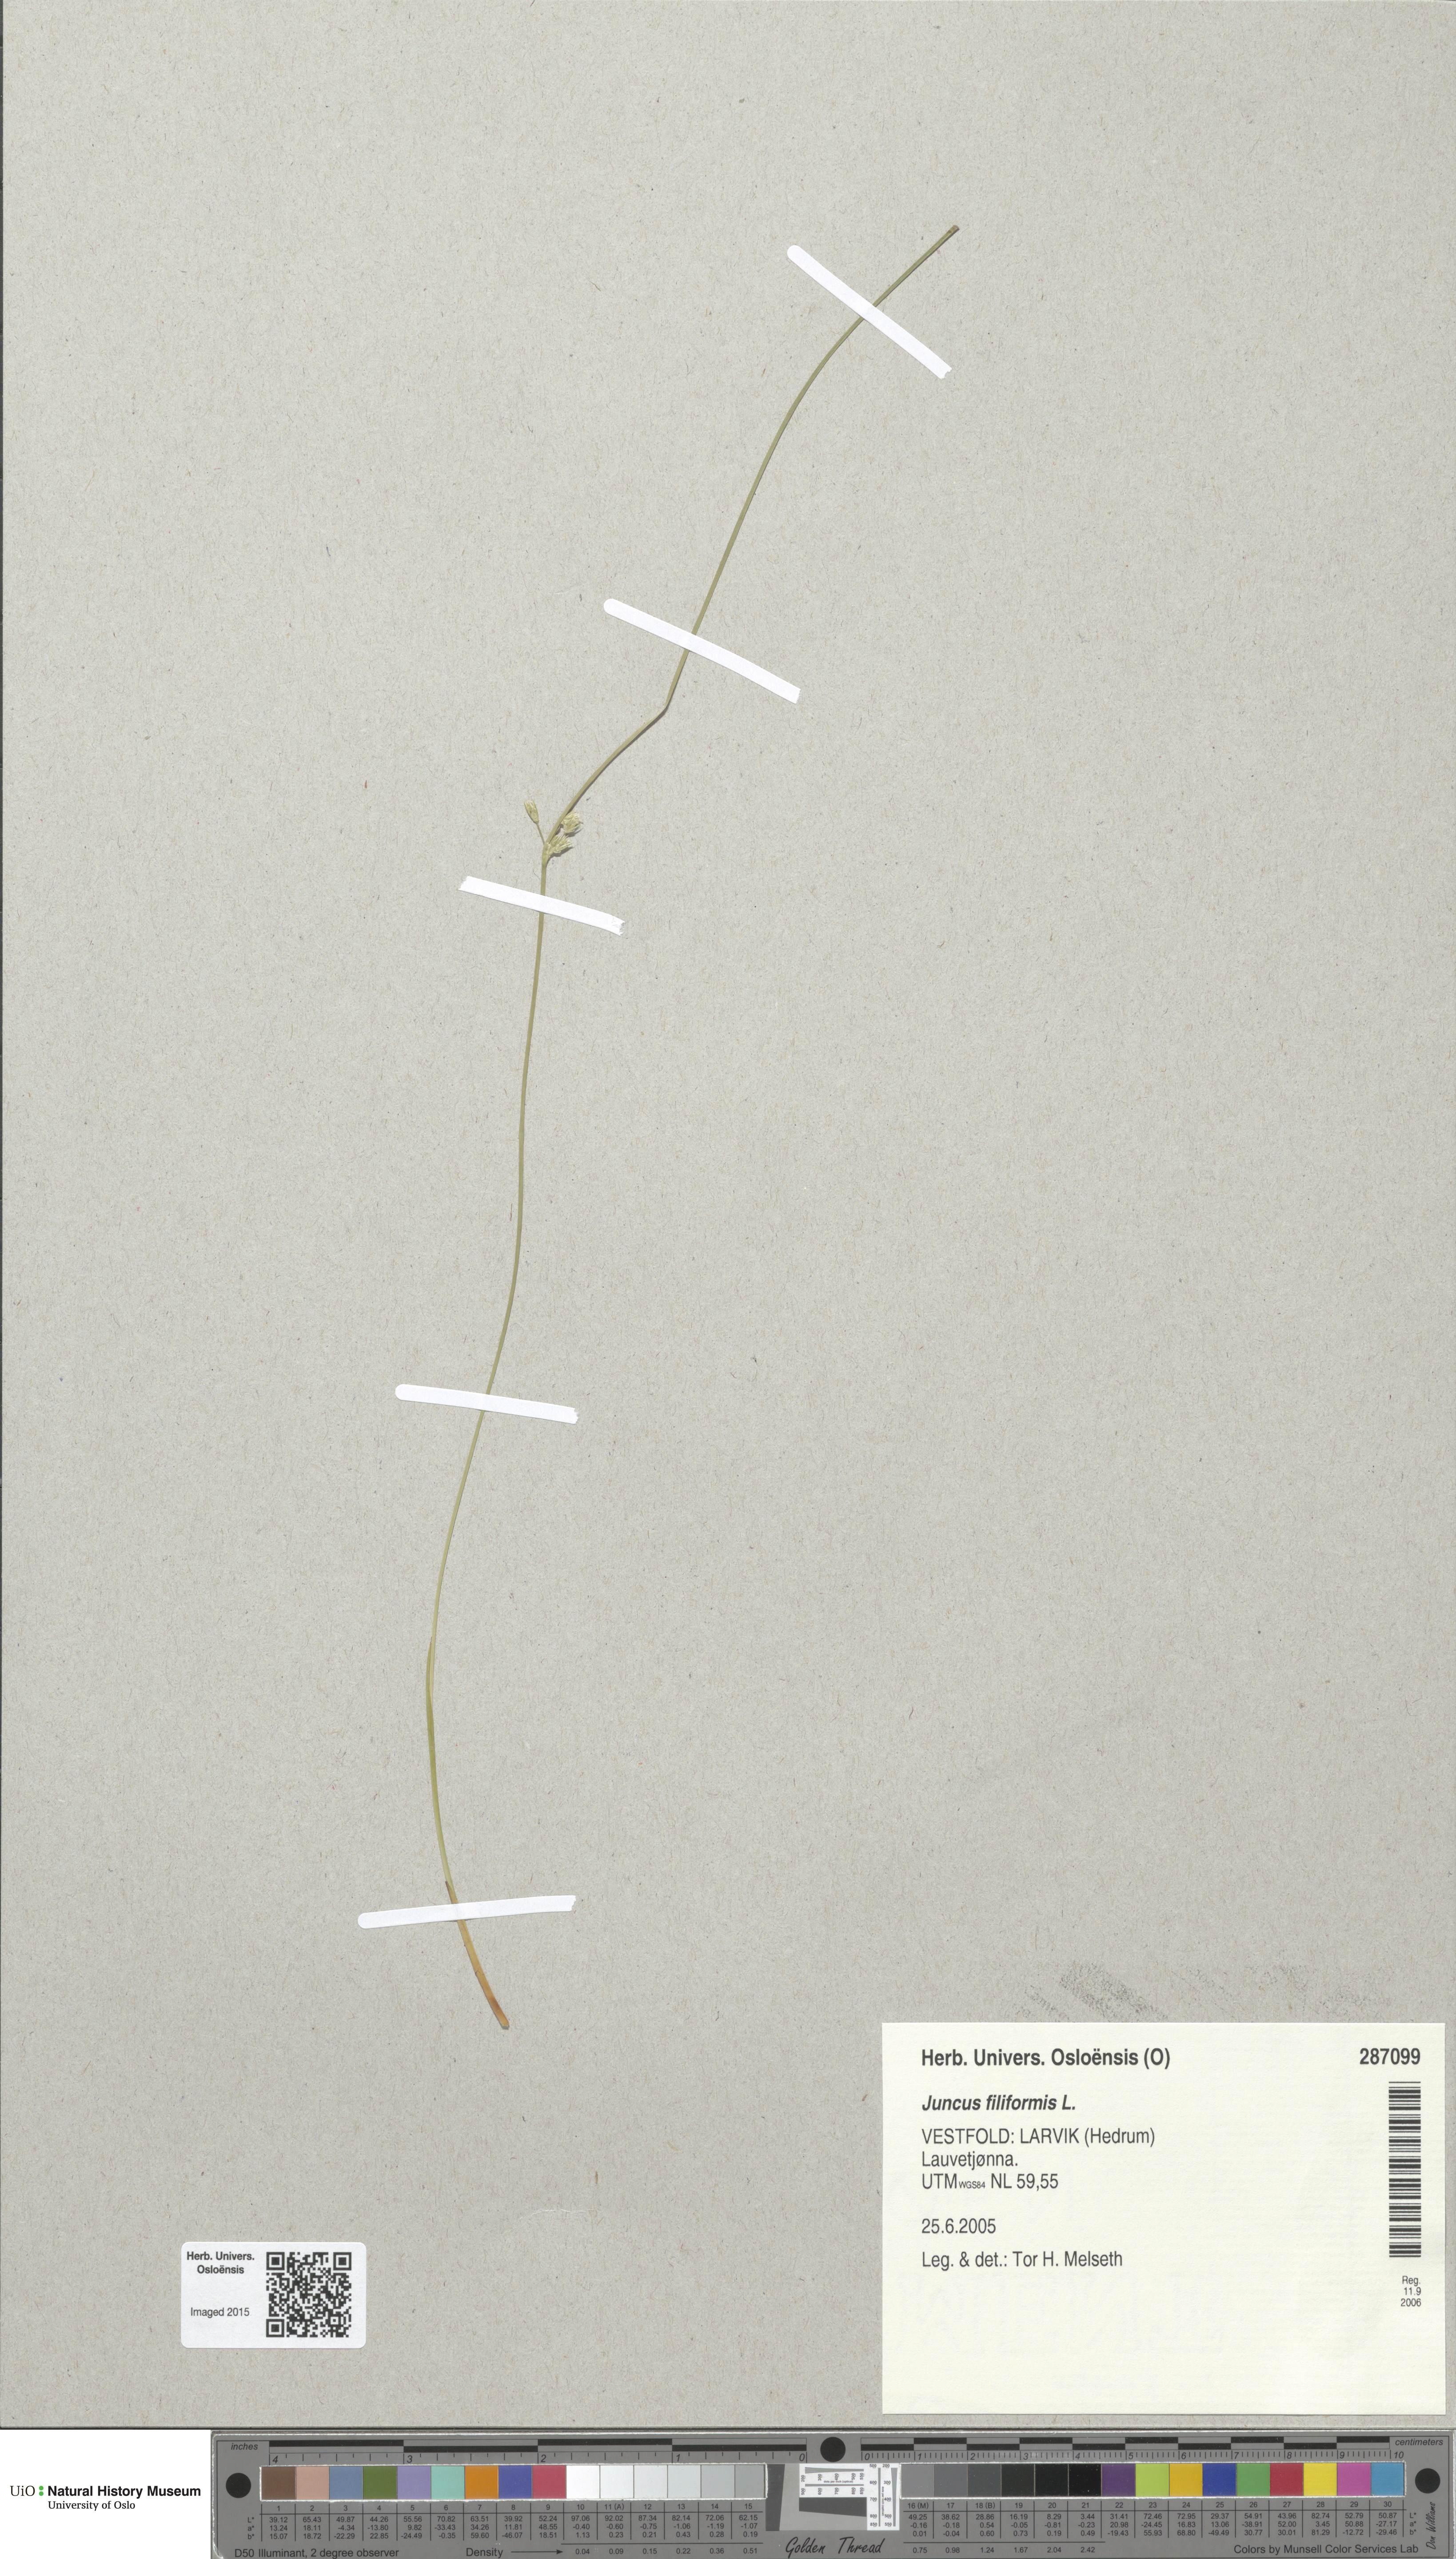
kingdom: Plantae
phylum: Tracheophyta
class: Liliopsida
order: Poales
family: Juncaceae
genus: Juncus
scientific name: Juncus filiformis
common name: Thread rush
